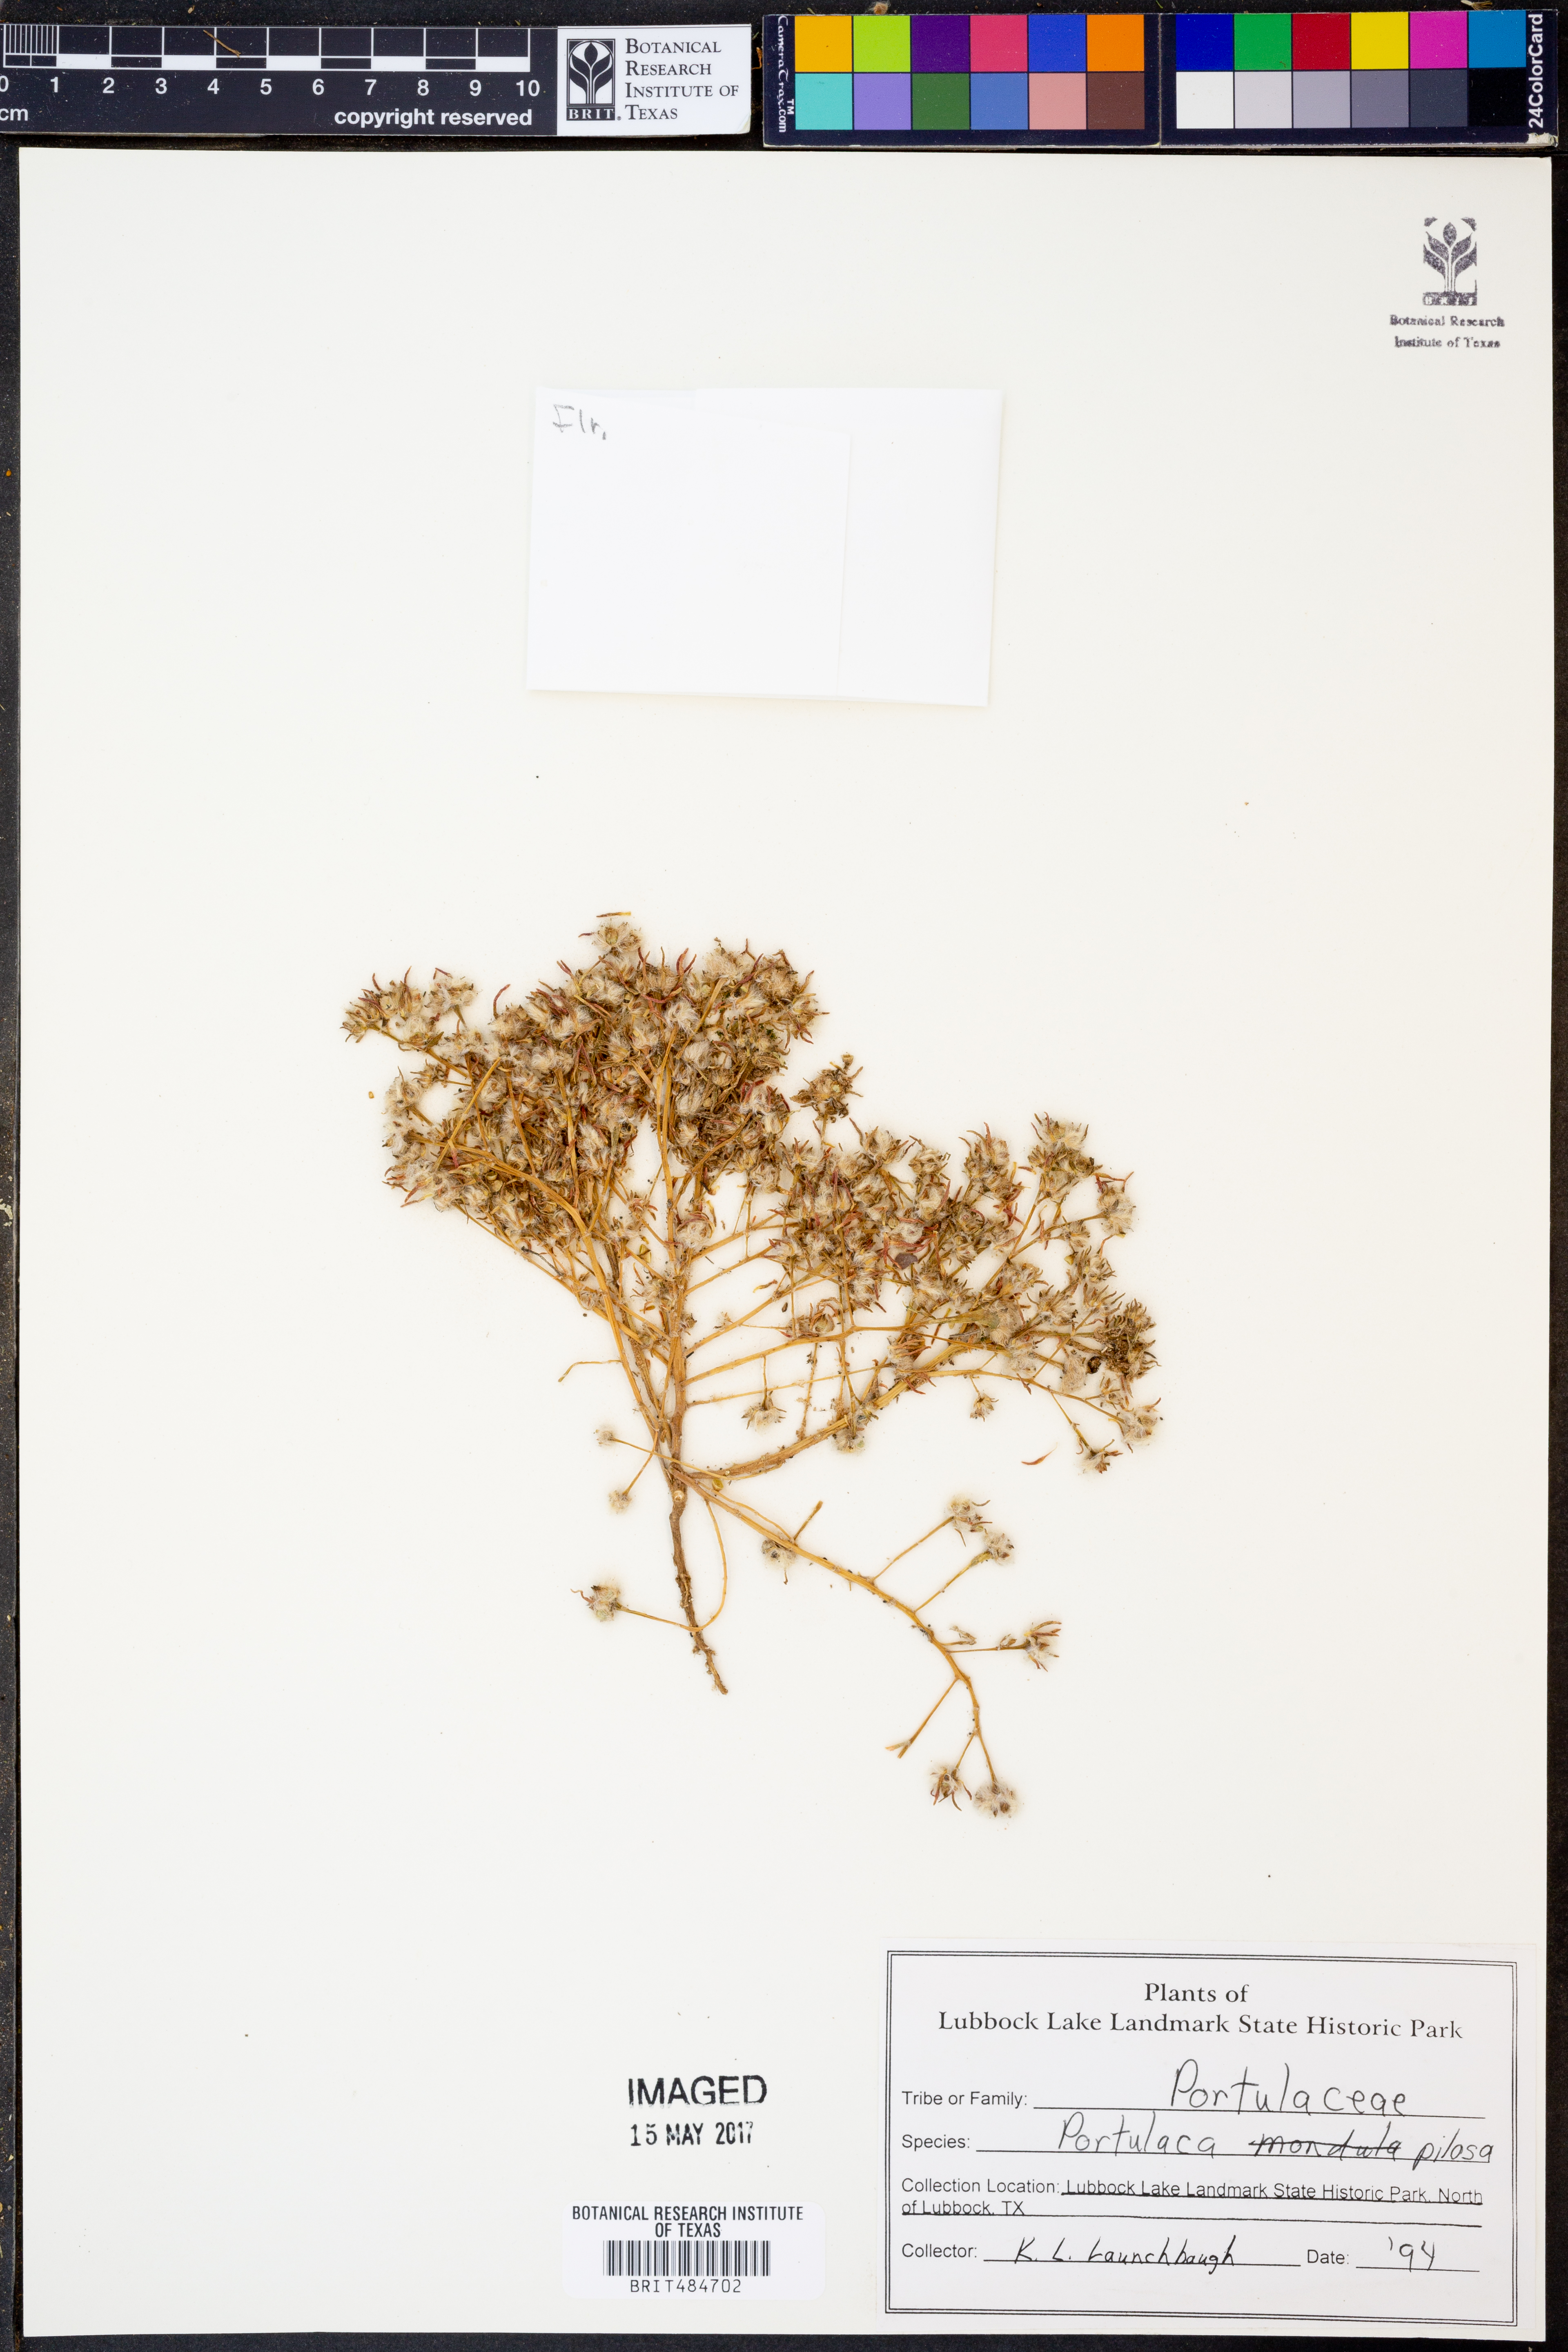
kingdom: Plantae
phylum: Tracheophyta
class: Magnoliopsida
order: Caryophyllales
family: Portulacaceae
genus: Portulaca
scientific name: Portulaca pilosa
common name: Kiss me quick
